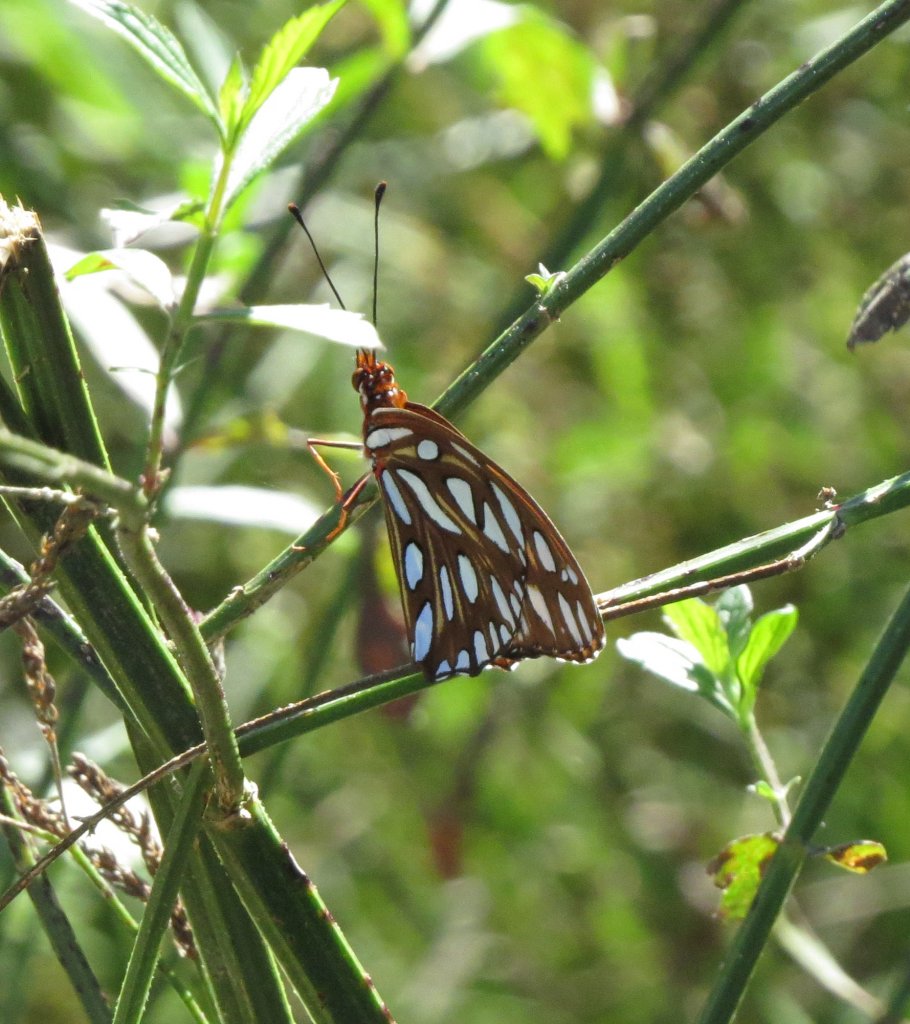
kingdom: Animalia
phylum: Arthropoda
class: Insecta
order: Lepidoptera
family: Nymphalidae
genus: Dione
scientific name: Dione vanillae
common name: Gulf Fritillary
